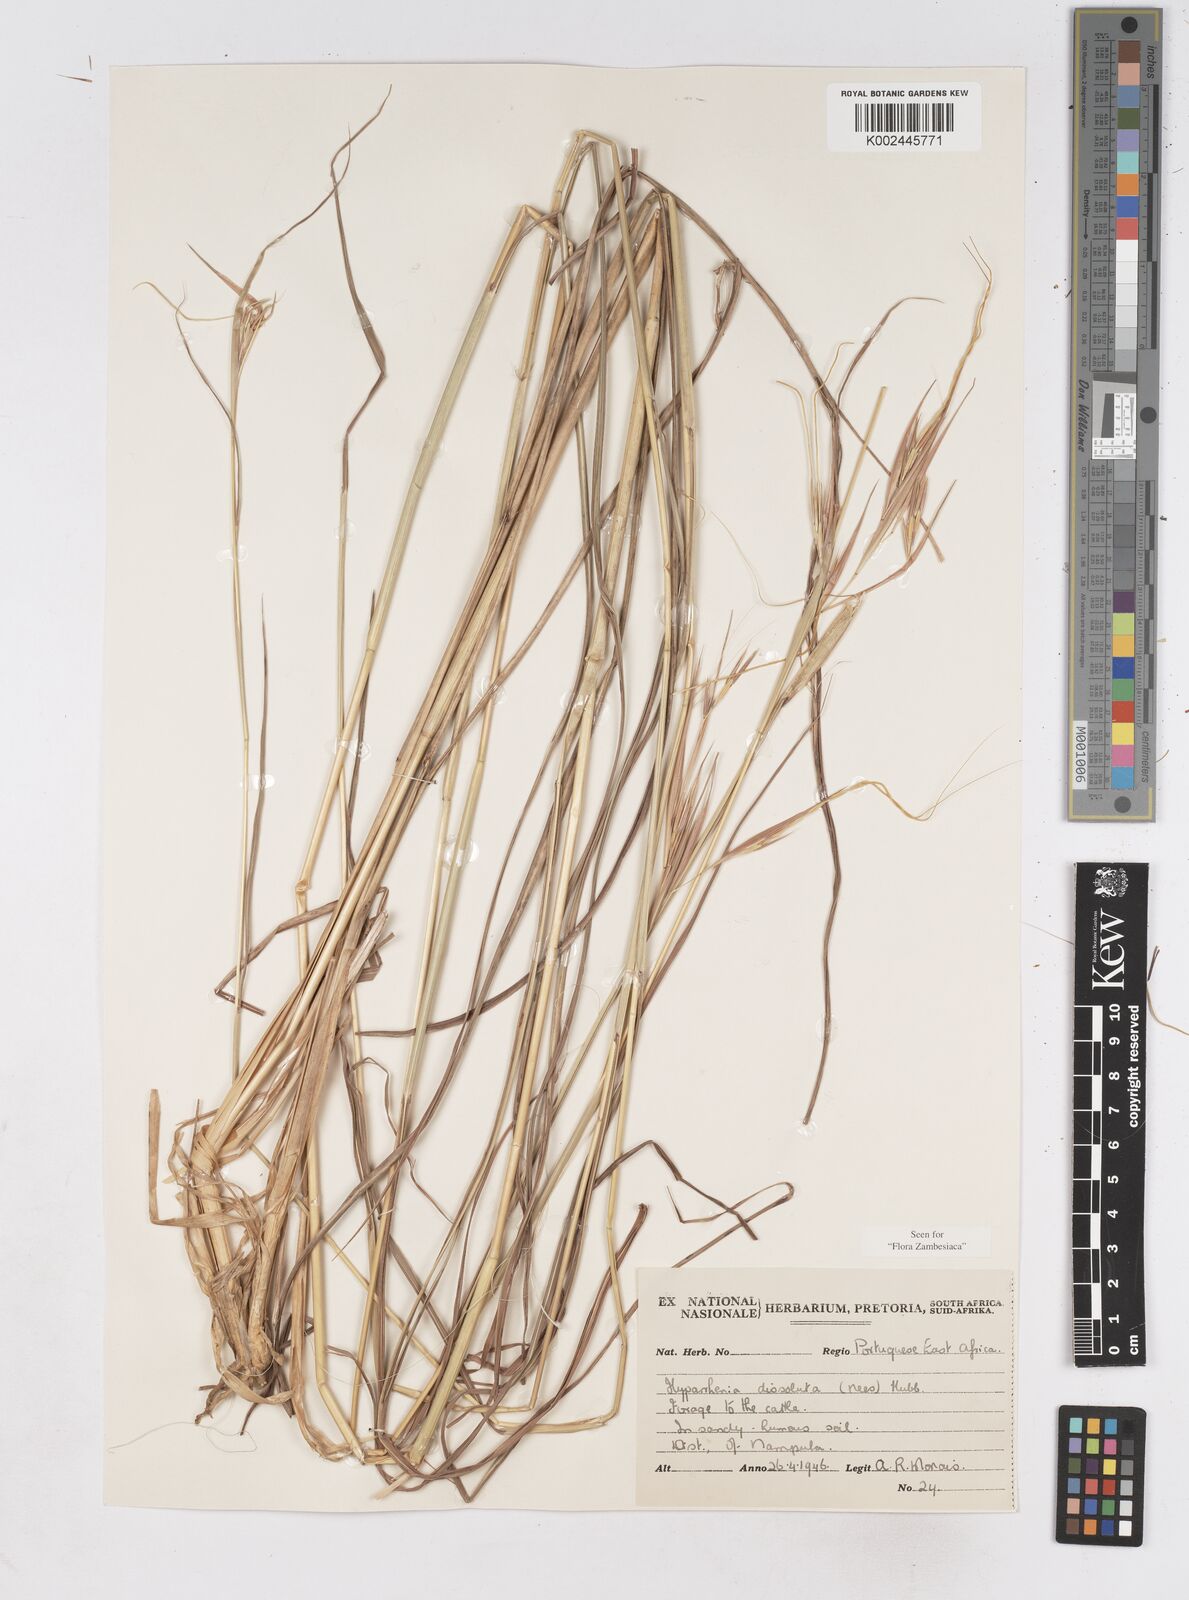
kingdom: Plantae
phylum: Tracheophyta
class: Liliopsida
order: Poales
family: Poaceae
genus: Hyperthelia
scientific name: Hyperthelia dissoluta
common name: Yellow thatching grass
